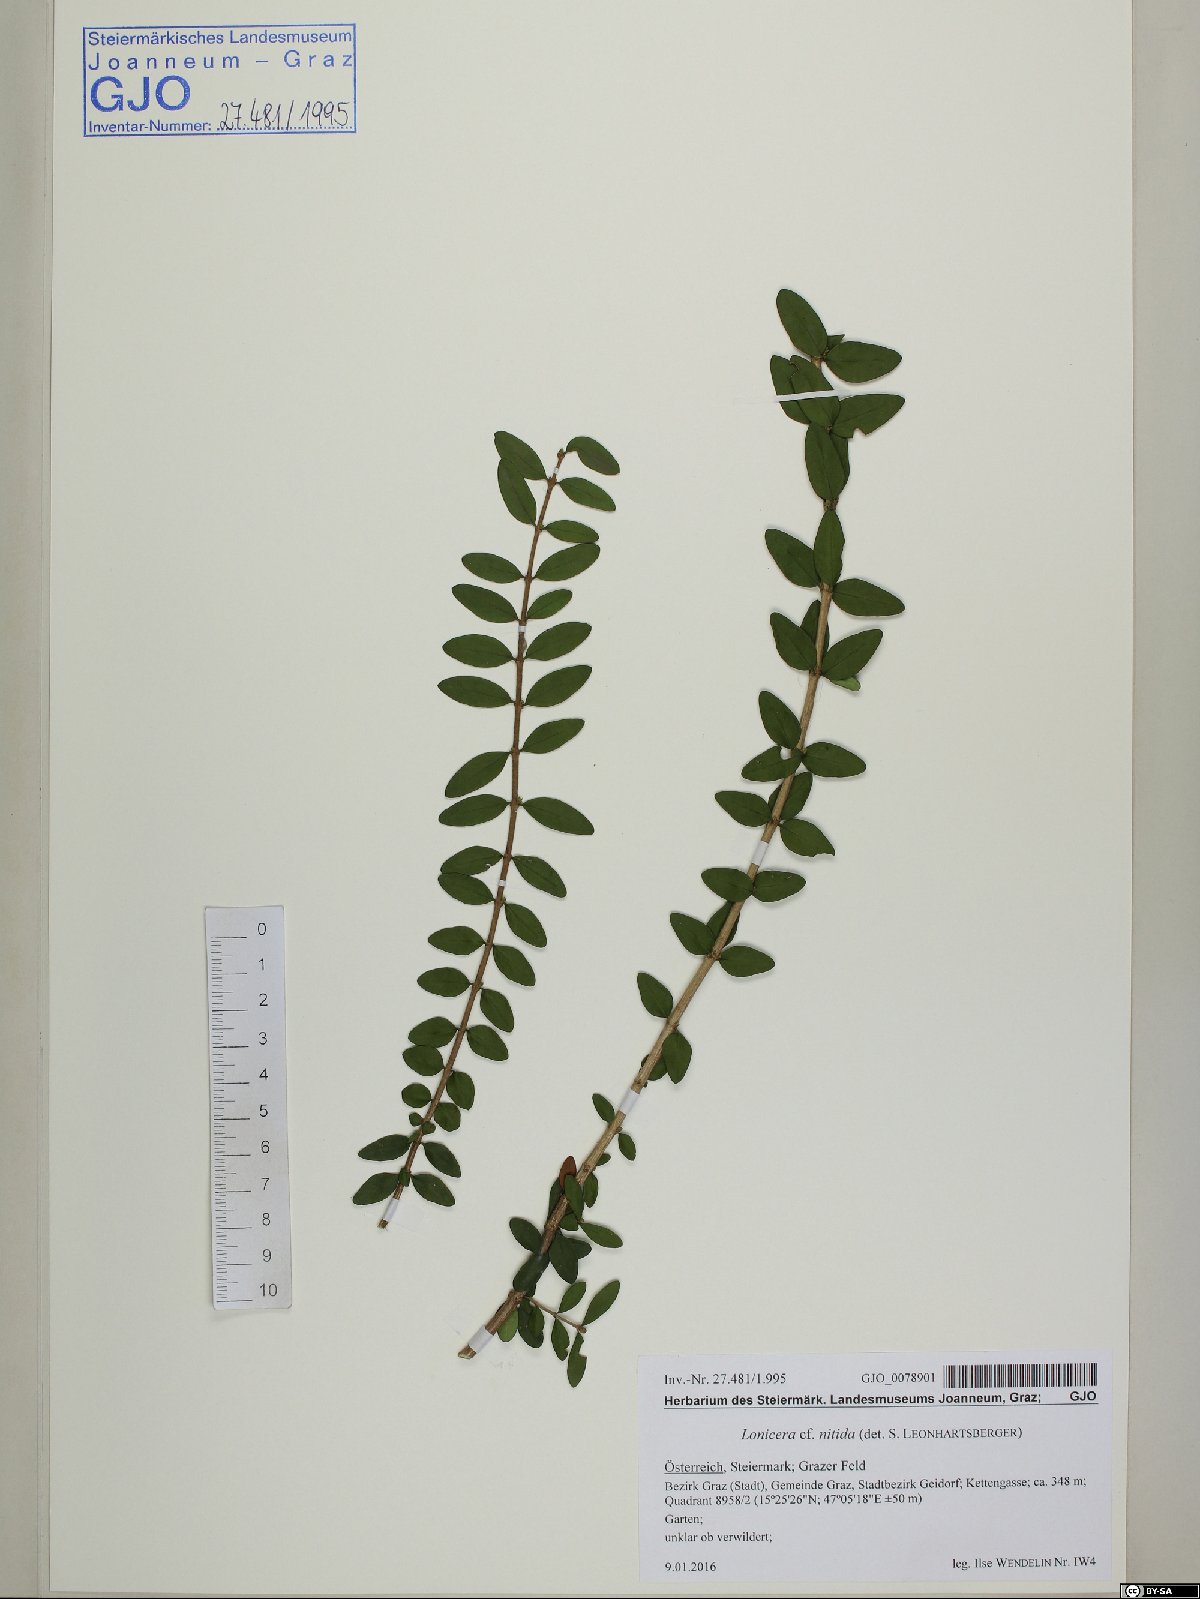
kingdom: Plantae
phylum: Tracheophyta
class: Magnoliopsida
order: Dipsacales
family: Caprifoliaceae
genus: Lonicera
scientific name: Lonicera pileata
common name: Box-leaved honeysuckle
